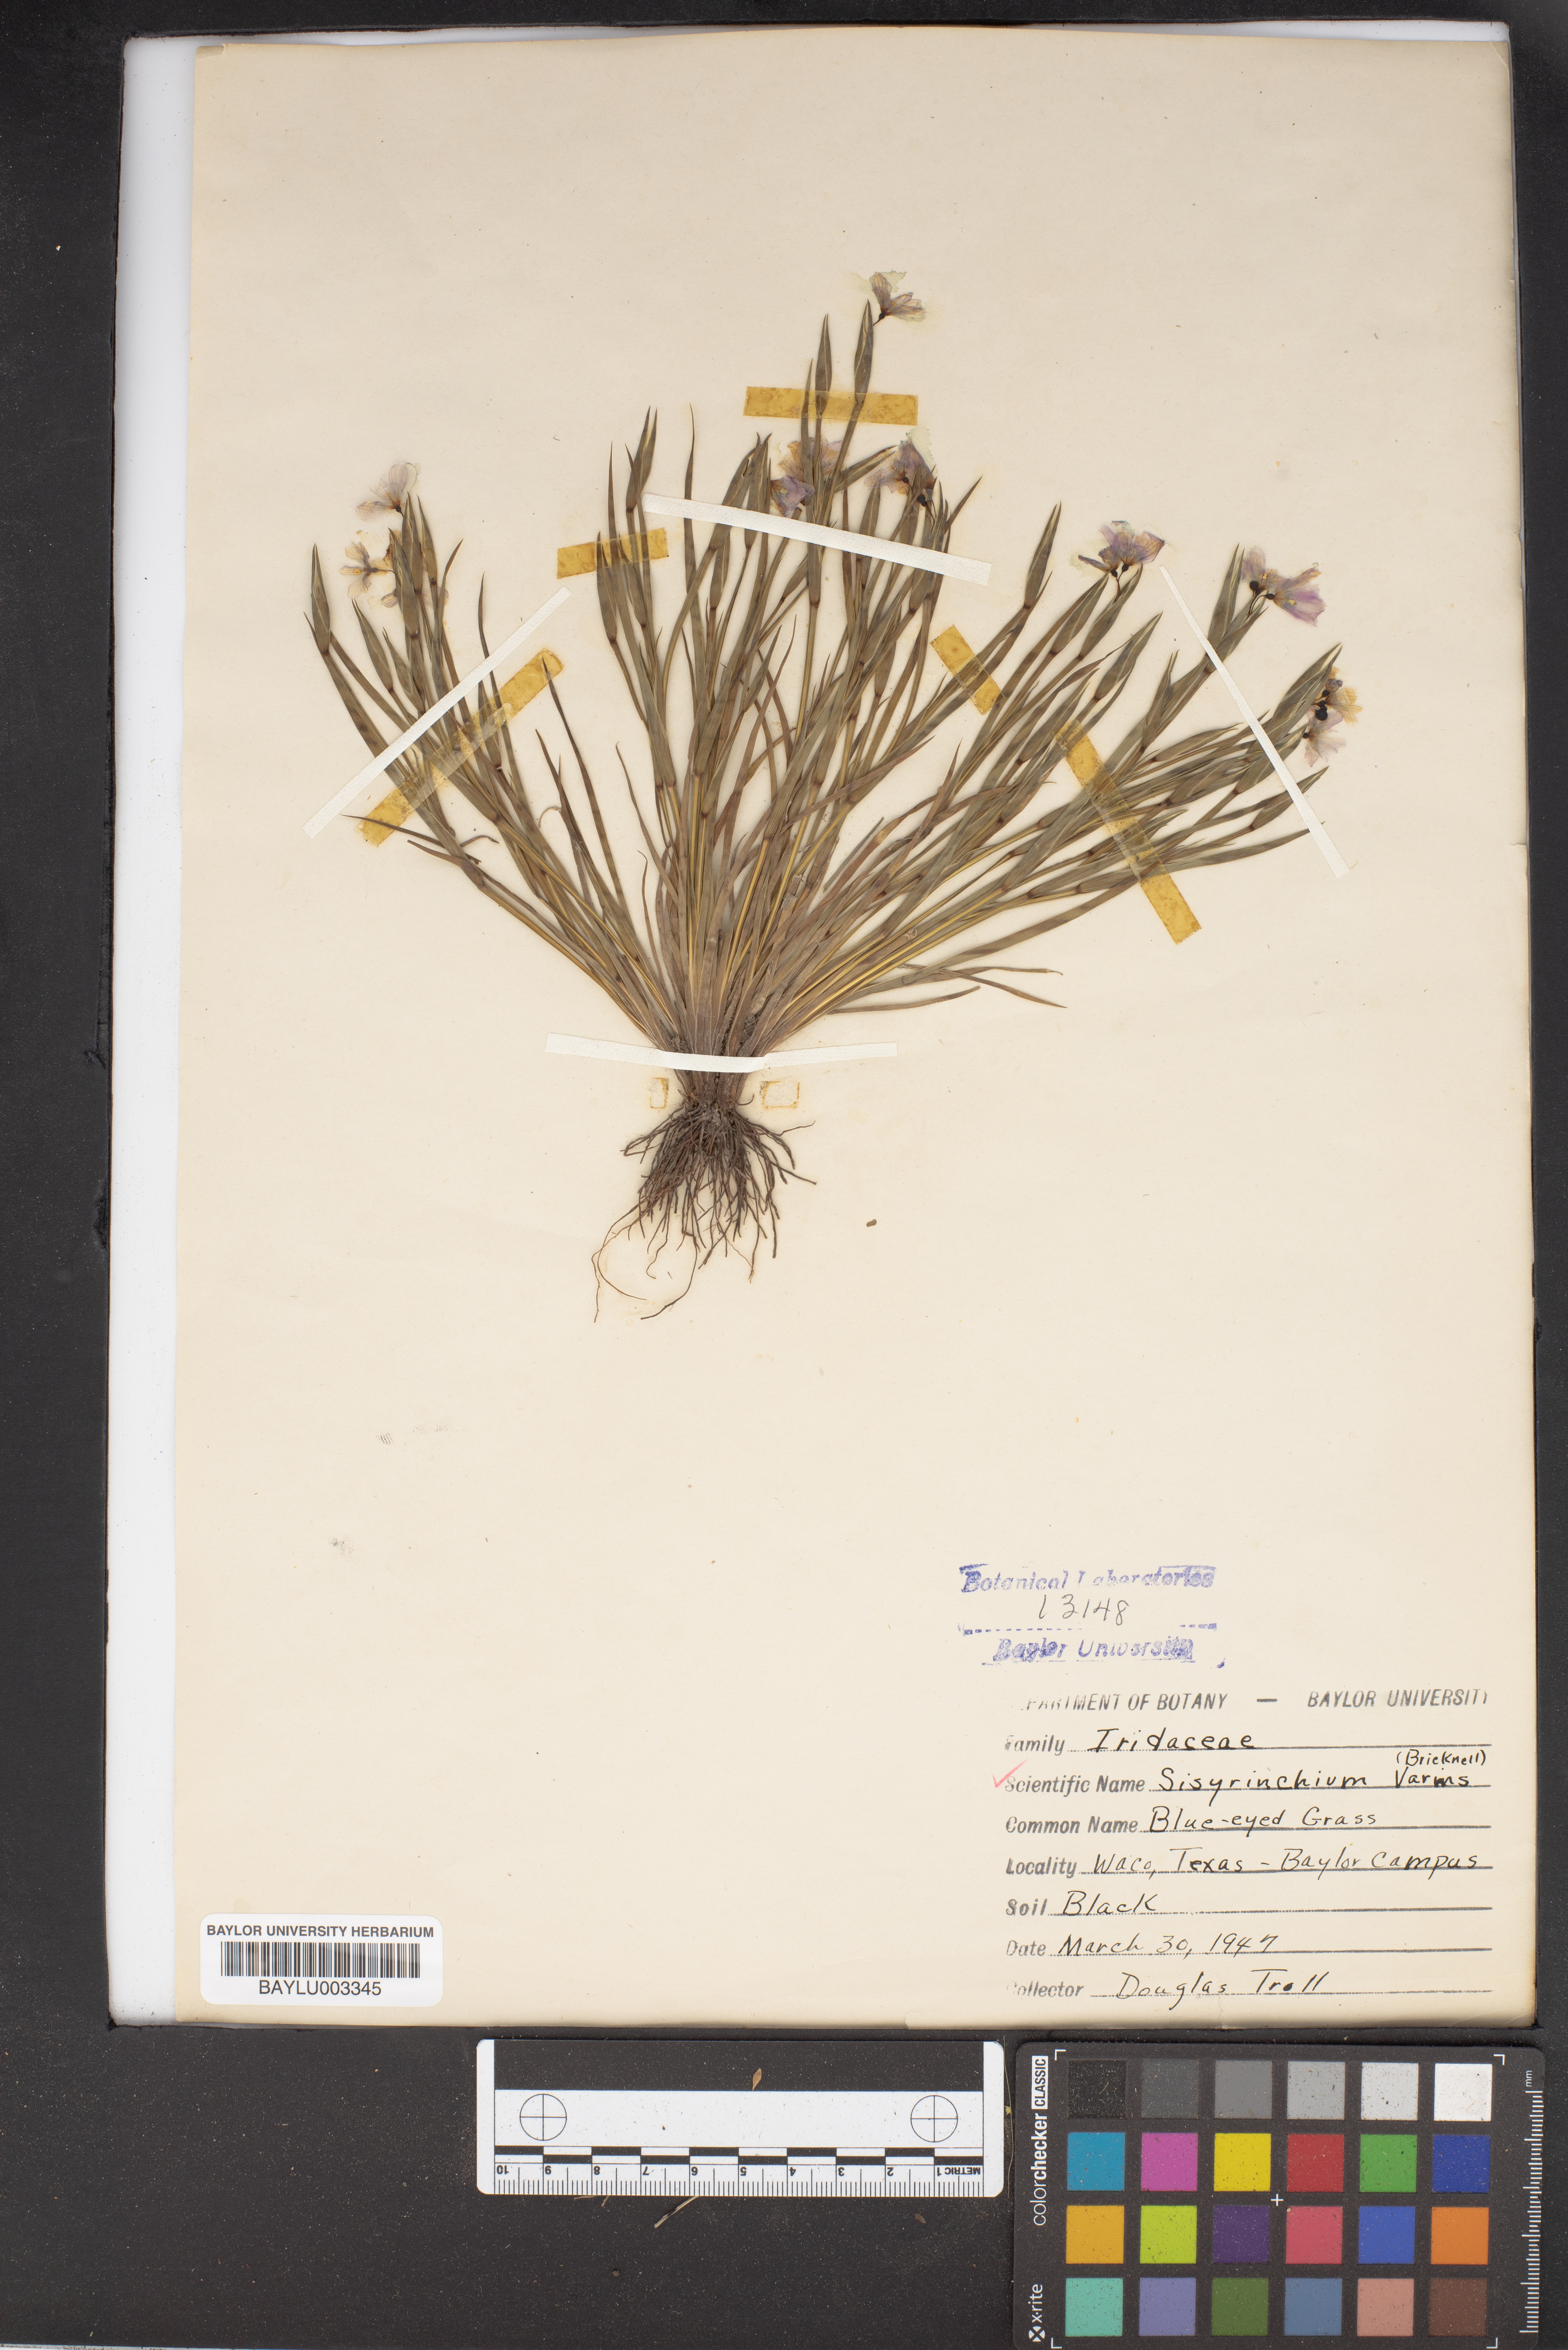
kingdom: Plantae
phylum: Tracheophyta
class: Liliopsida
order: Asparagales
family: Iridaceae
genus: Sisyrinchium
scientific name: Sisyrinchium pruinosum
